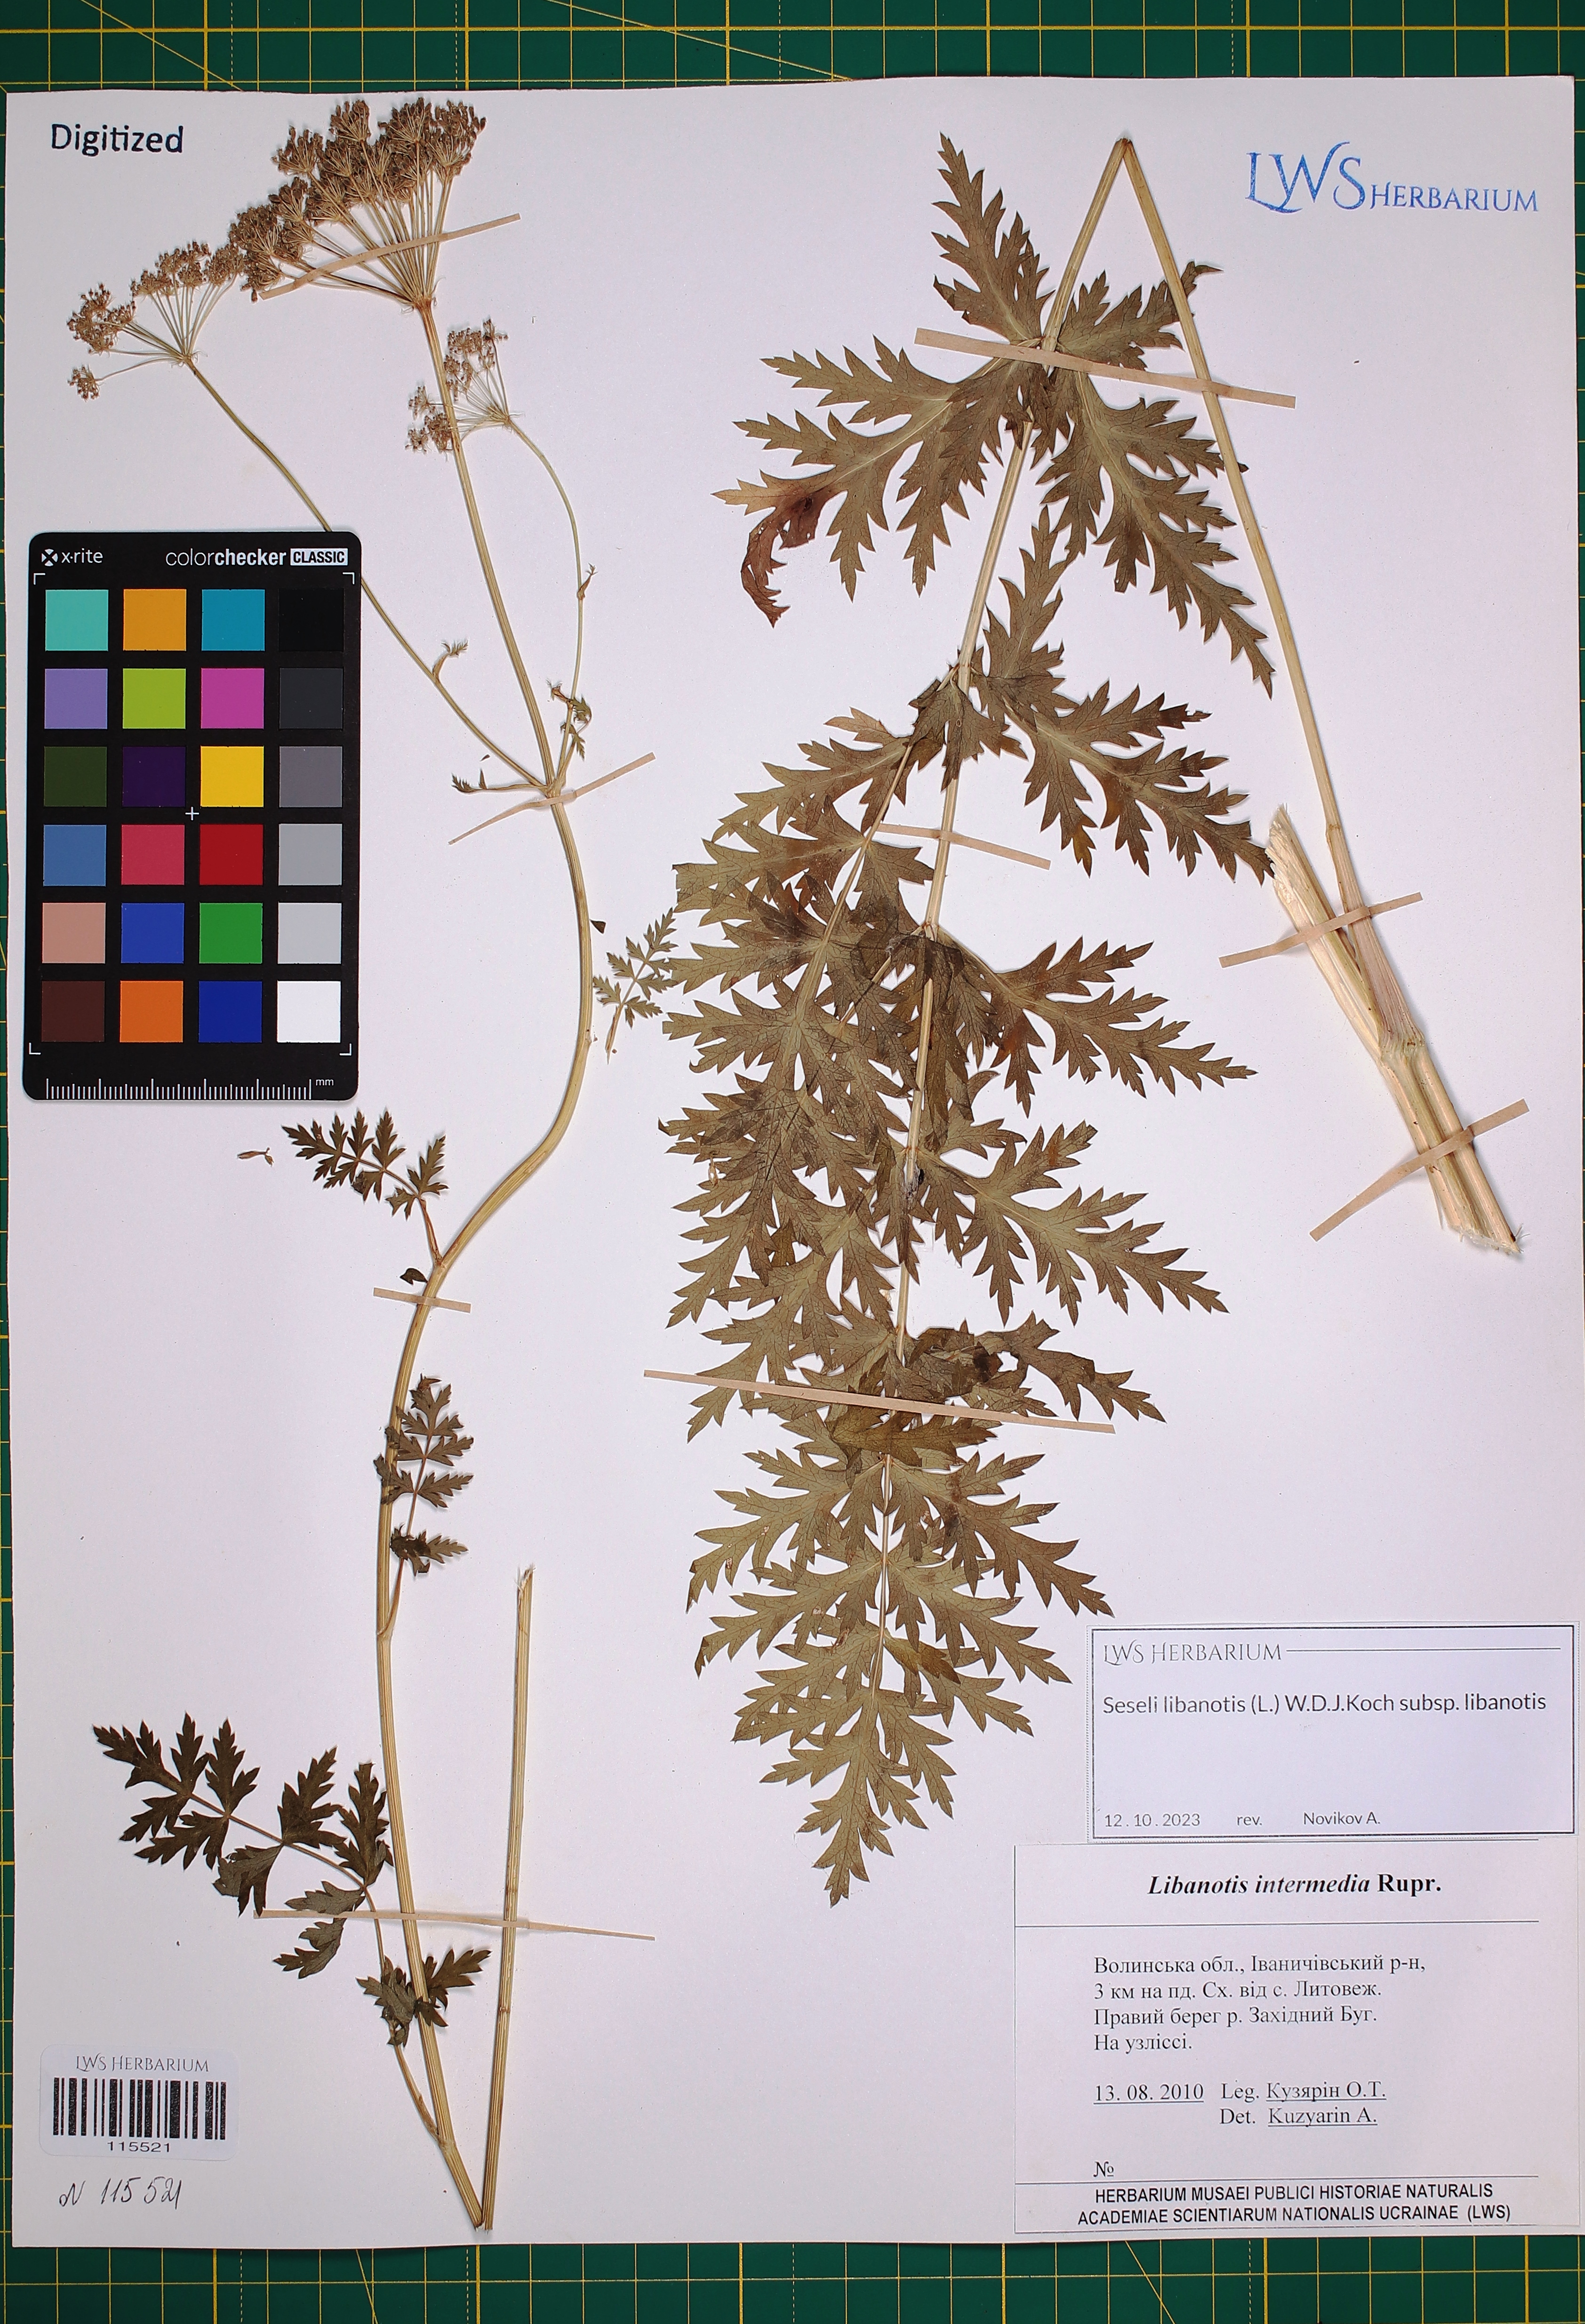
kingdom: Plantae
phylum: Tracheophyta
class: Magnoliopsida
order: Apiales
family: Apiaceae
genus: Seseli
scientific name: Seseli libanotis
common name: Mooncarrot
